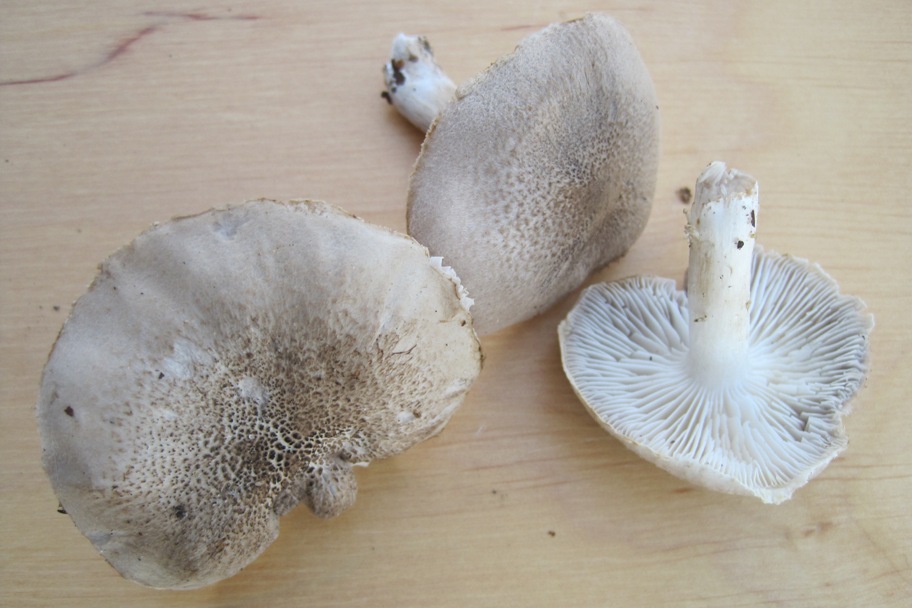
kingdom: Fungi
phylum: Basidiomycota
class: Agaricomycetes
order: Agaricales
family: Tricholomataceae
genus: Tricholoma
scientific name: Tricholoma scalpturatum
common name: gulplettet ridderhat
